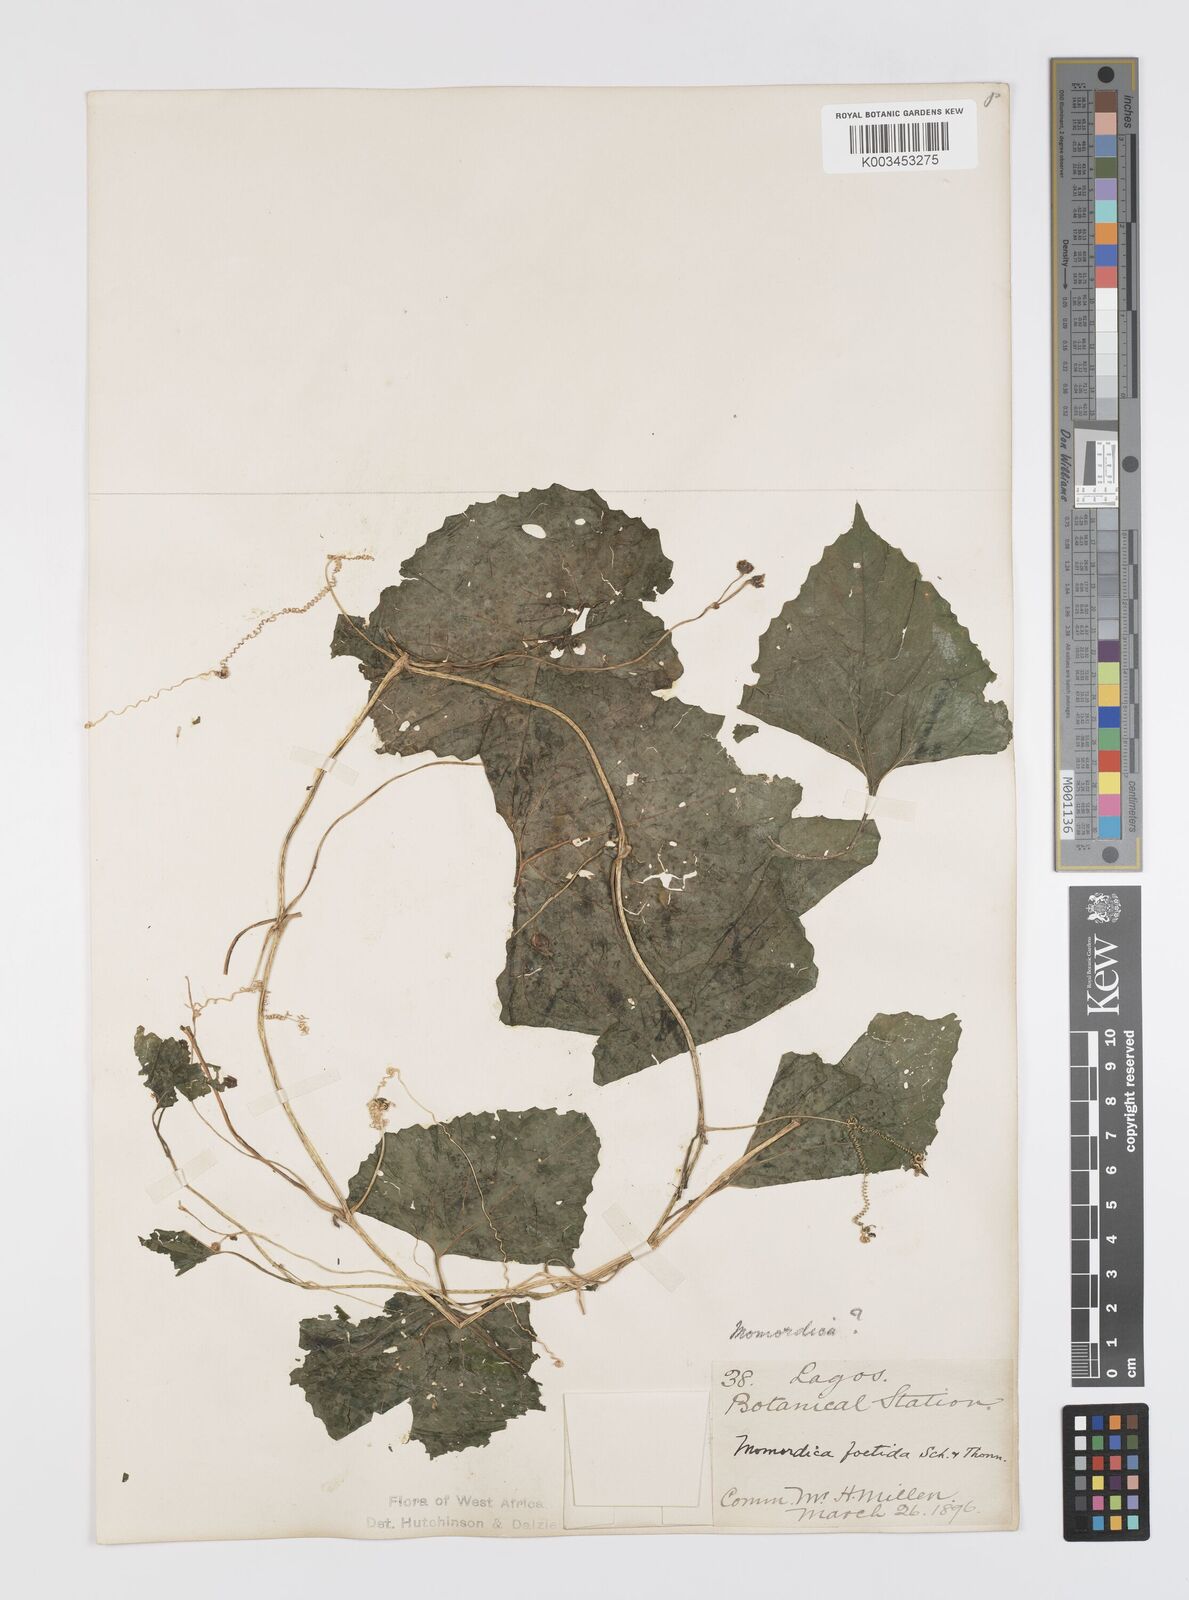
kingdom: Plantae
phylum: Tracheophyta
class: Magnoliopsida
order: Cucurbitales
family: Cucurbitaceae
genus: Momordica
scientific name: Momordica foetida
